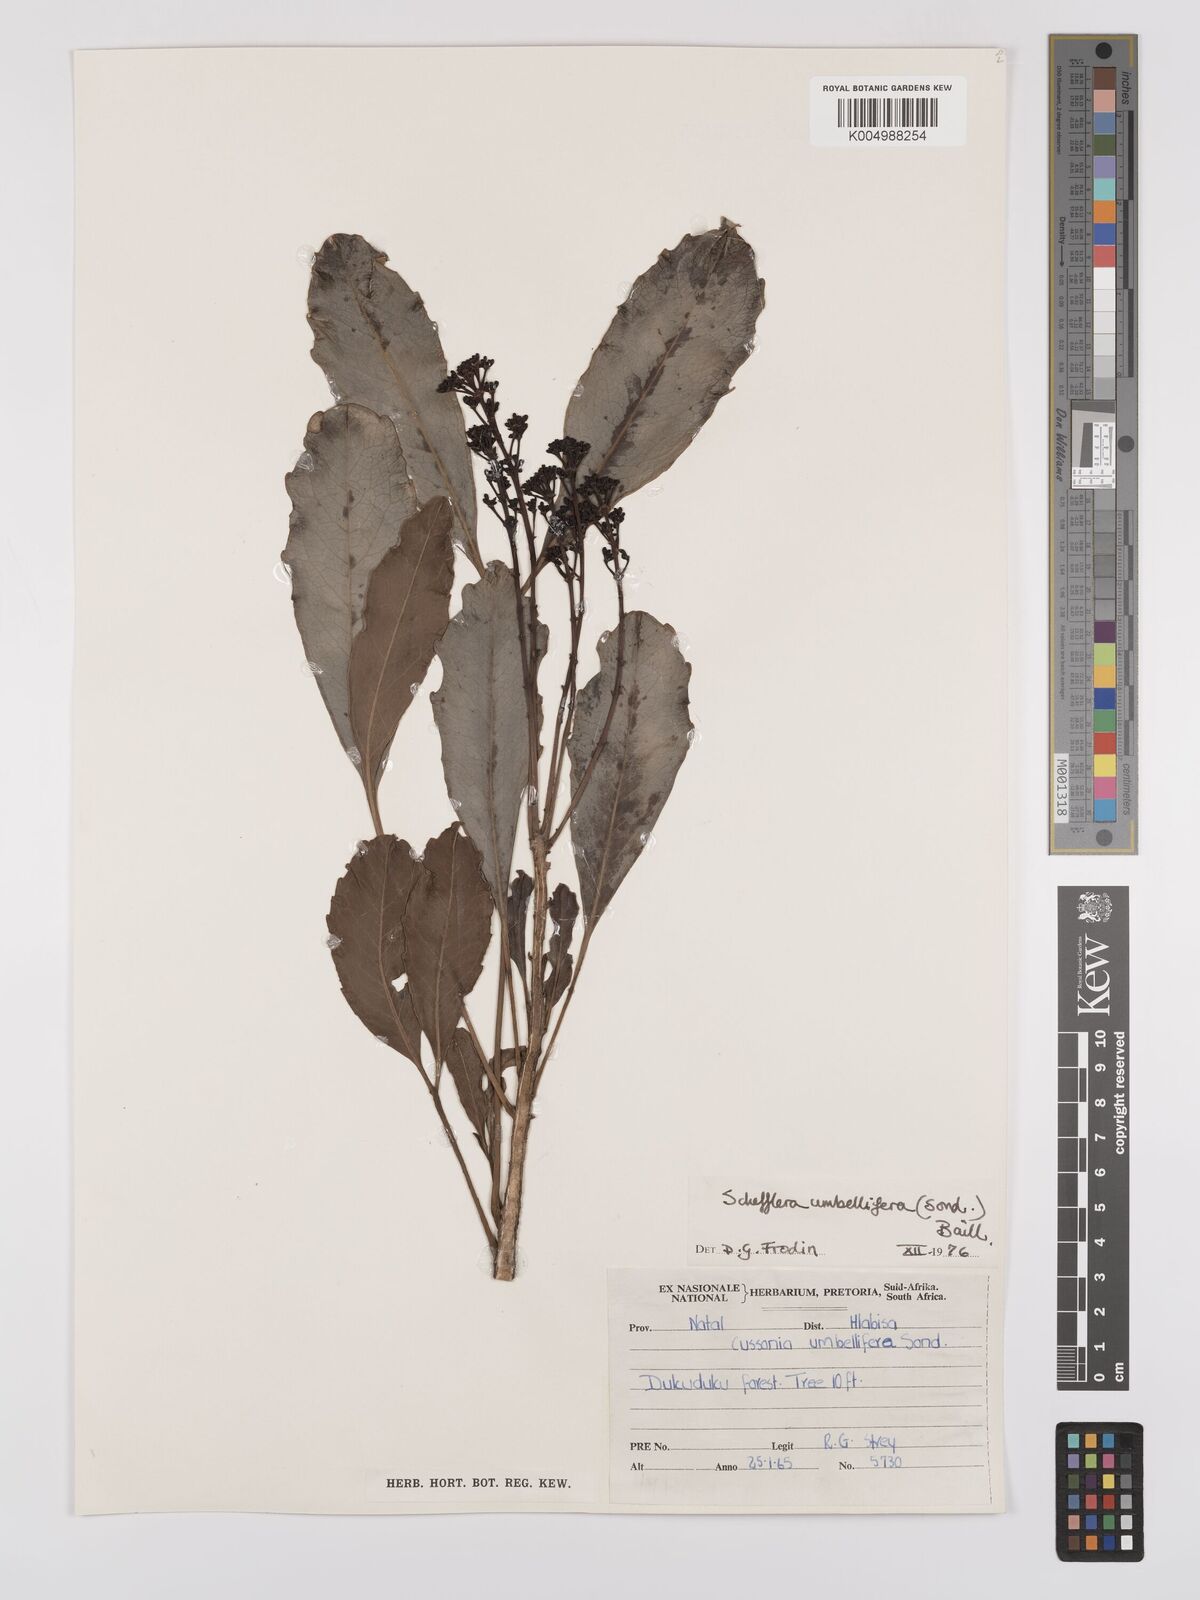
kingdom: Plantae
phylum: Tracheophyta
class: Magnoliopsida
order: Apiales
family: Araliaceae
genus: Neocussonia
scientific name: Neocussonia umbellifera
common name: False cabbage tree
